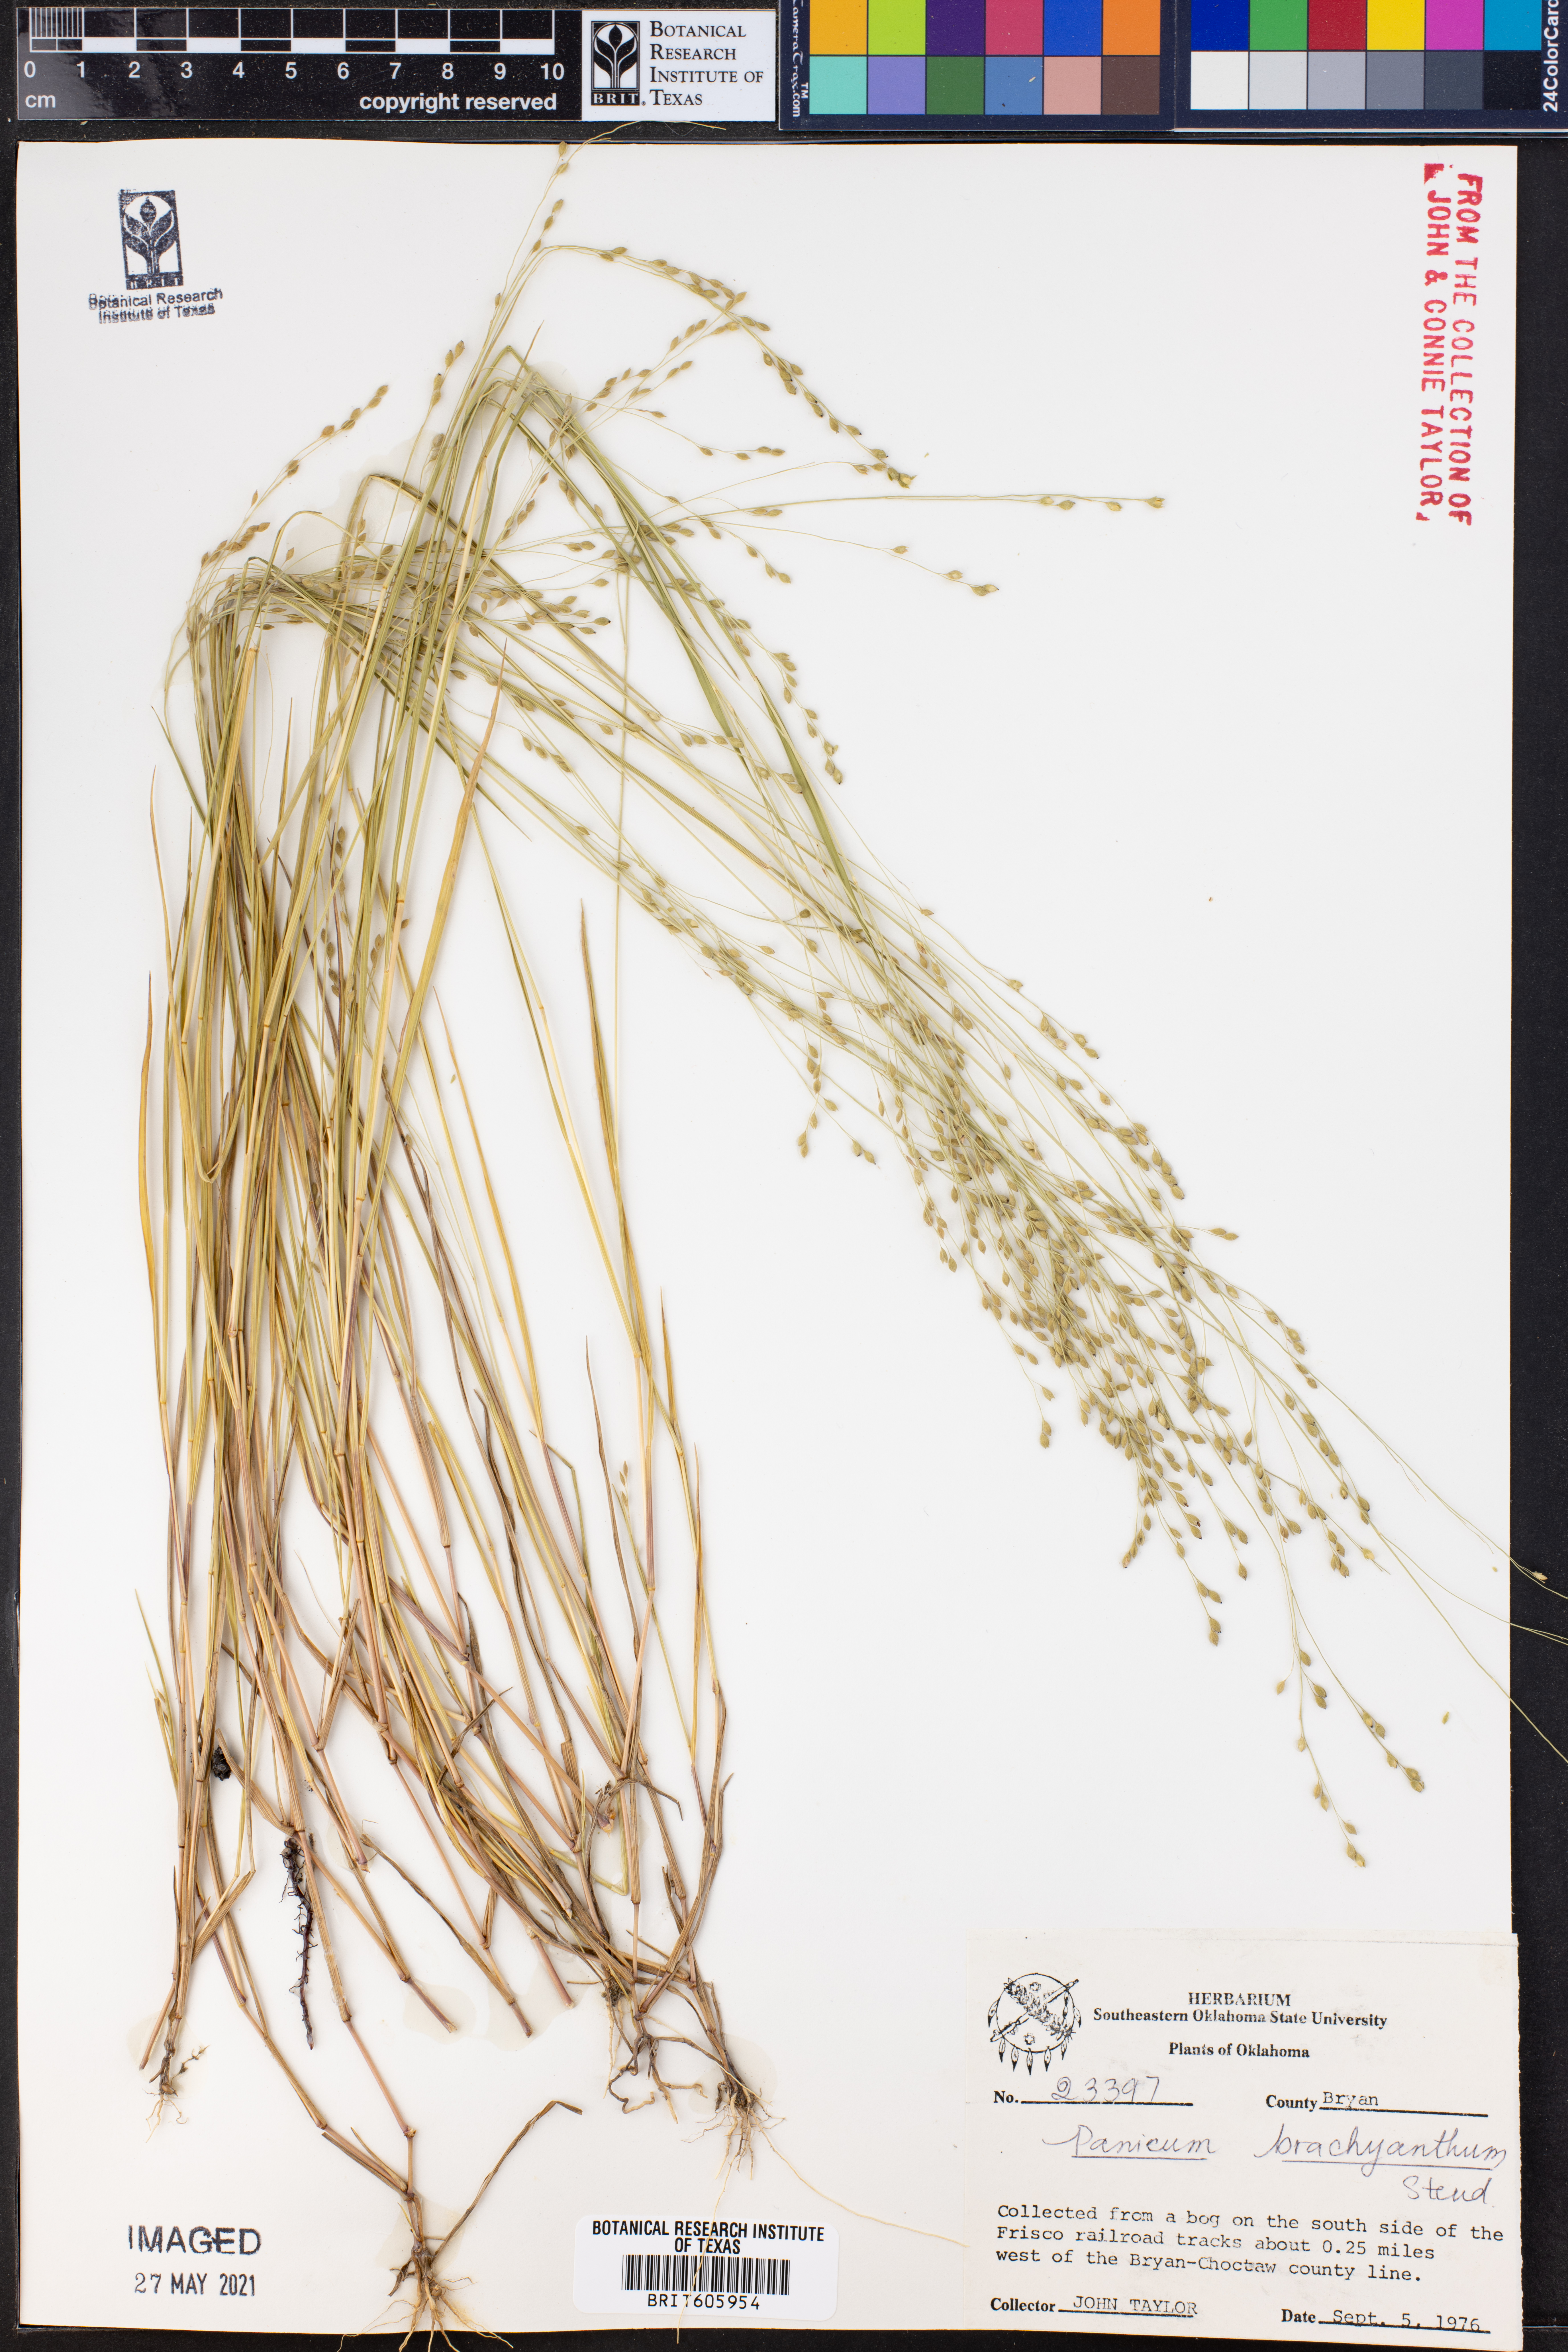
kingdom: Plantae
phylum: Tracheophyta
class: Liliopsida
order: Poales
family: Poaceae
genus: Kellochloa
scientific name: Kellochloa brachyantha
